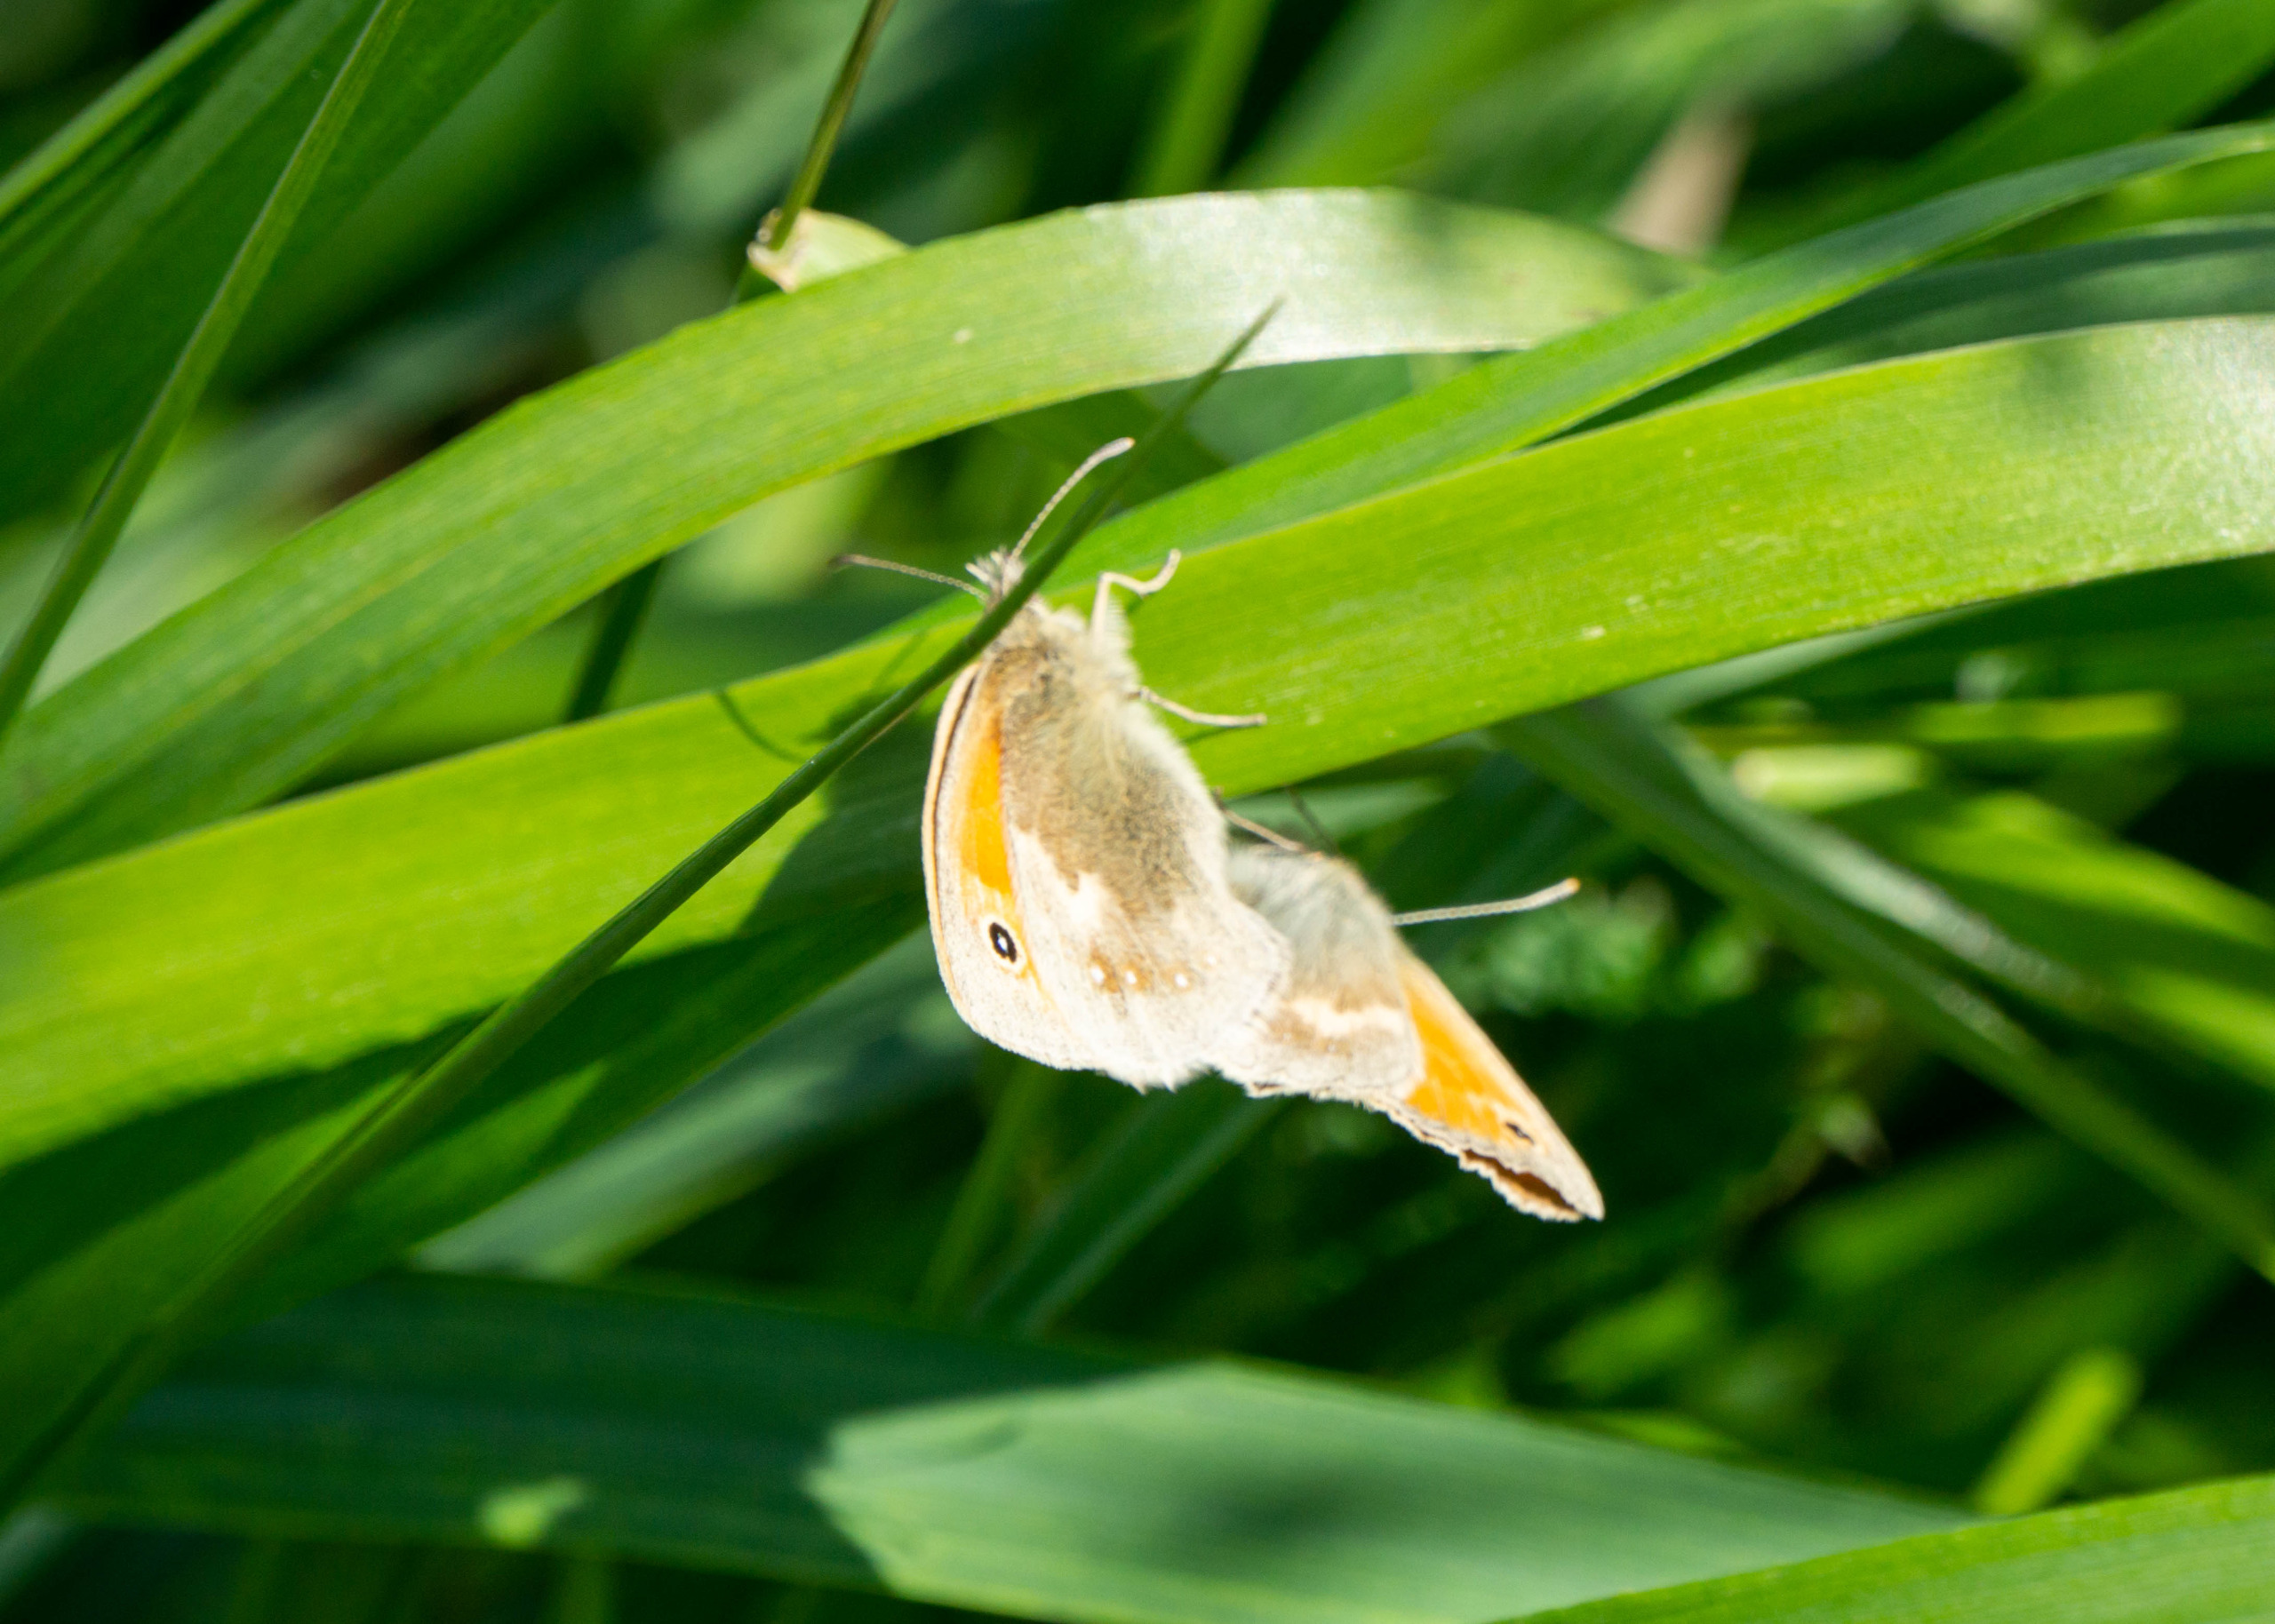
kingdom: Animalia
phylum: Arthropoda
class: Insecta
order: Lepidoptera
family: Nymphalidae
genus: Coenonympha
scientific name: Coenonympha pamphilus
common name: Okkergul randøje
